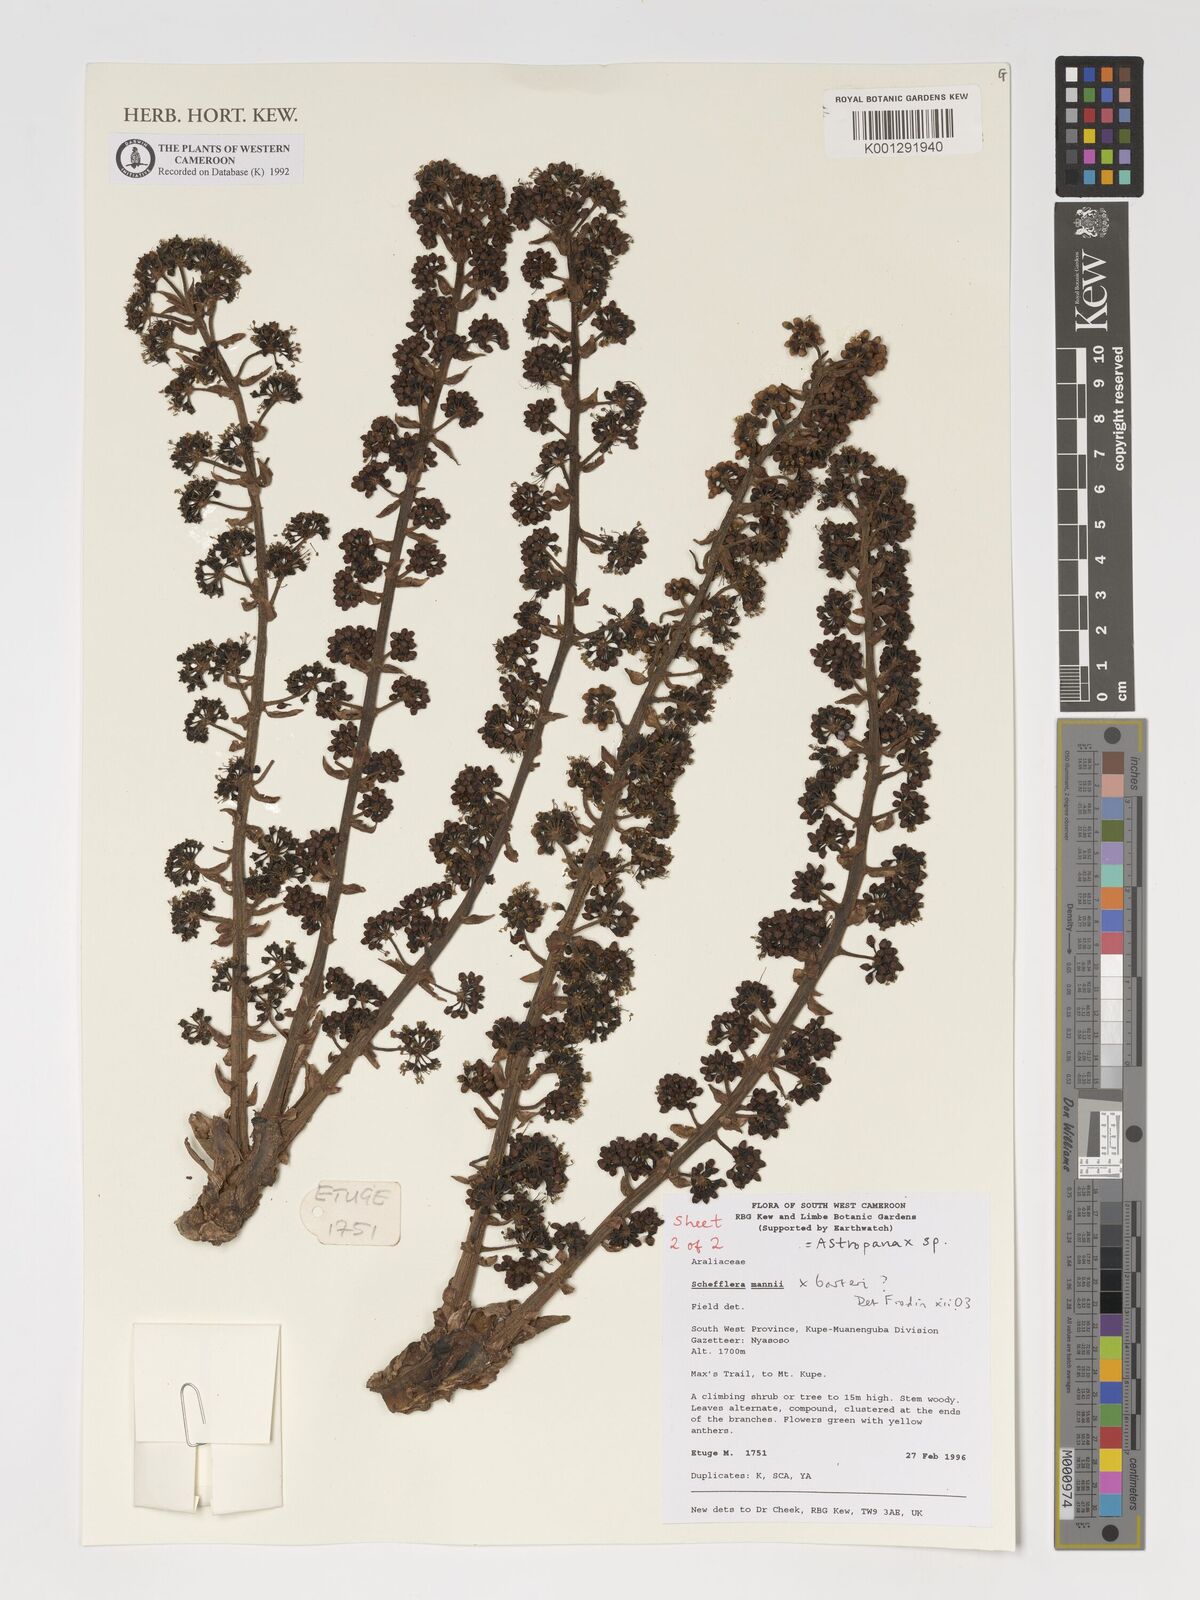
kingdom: Plantae
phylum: Tracheophyta
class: Magnoliopsida
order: Apiales
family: Araliaceae
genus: Astropanax
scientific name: Astropanax
